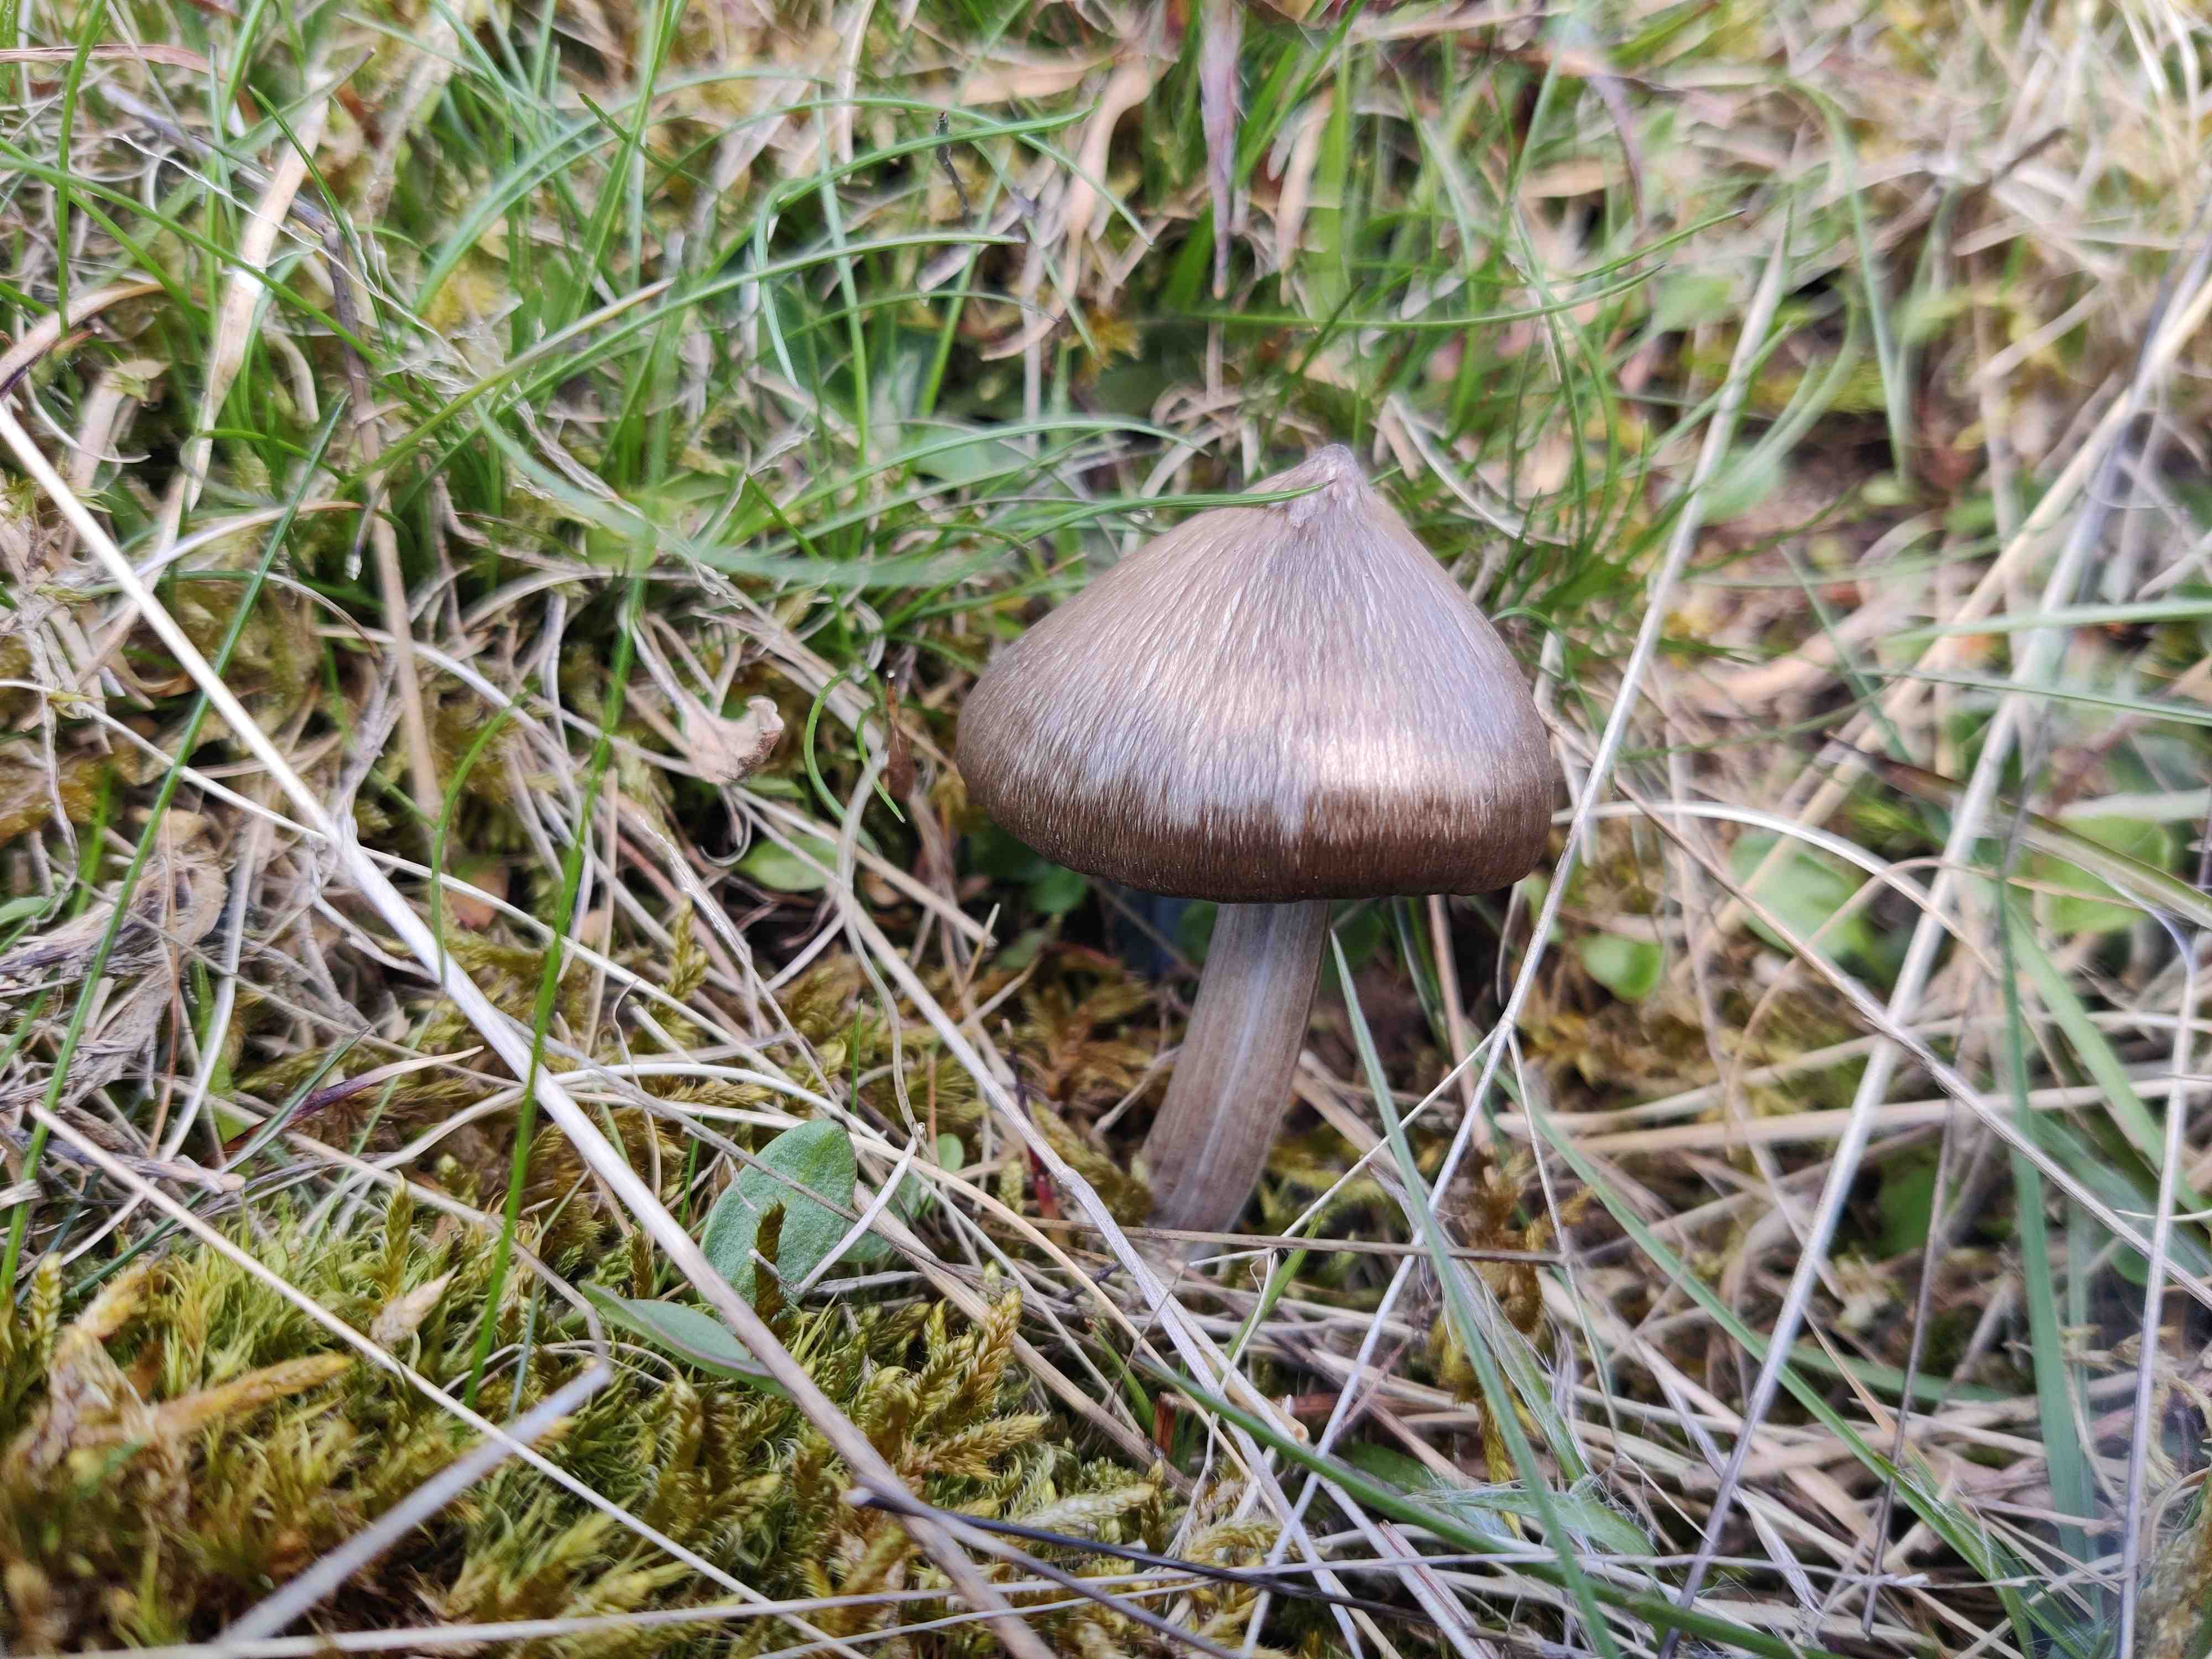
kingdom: Fungi
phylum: Basidiomycota
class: Agaricomycetes
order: Agaricales
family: Entolomataceae
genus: Entoloma
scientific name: Entoloma vernum
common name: vår-rødblad
